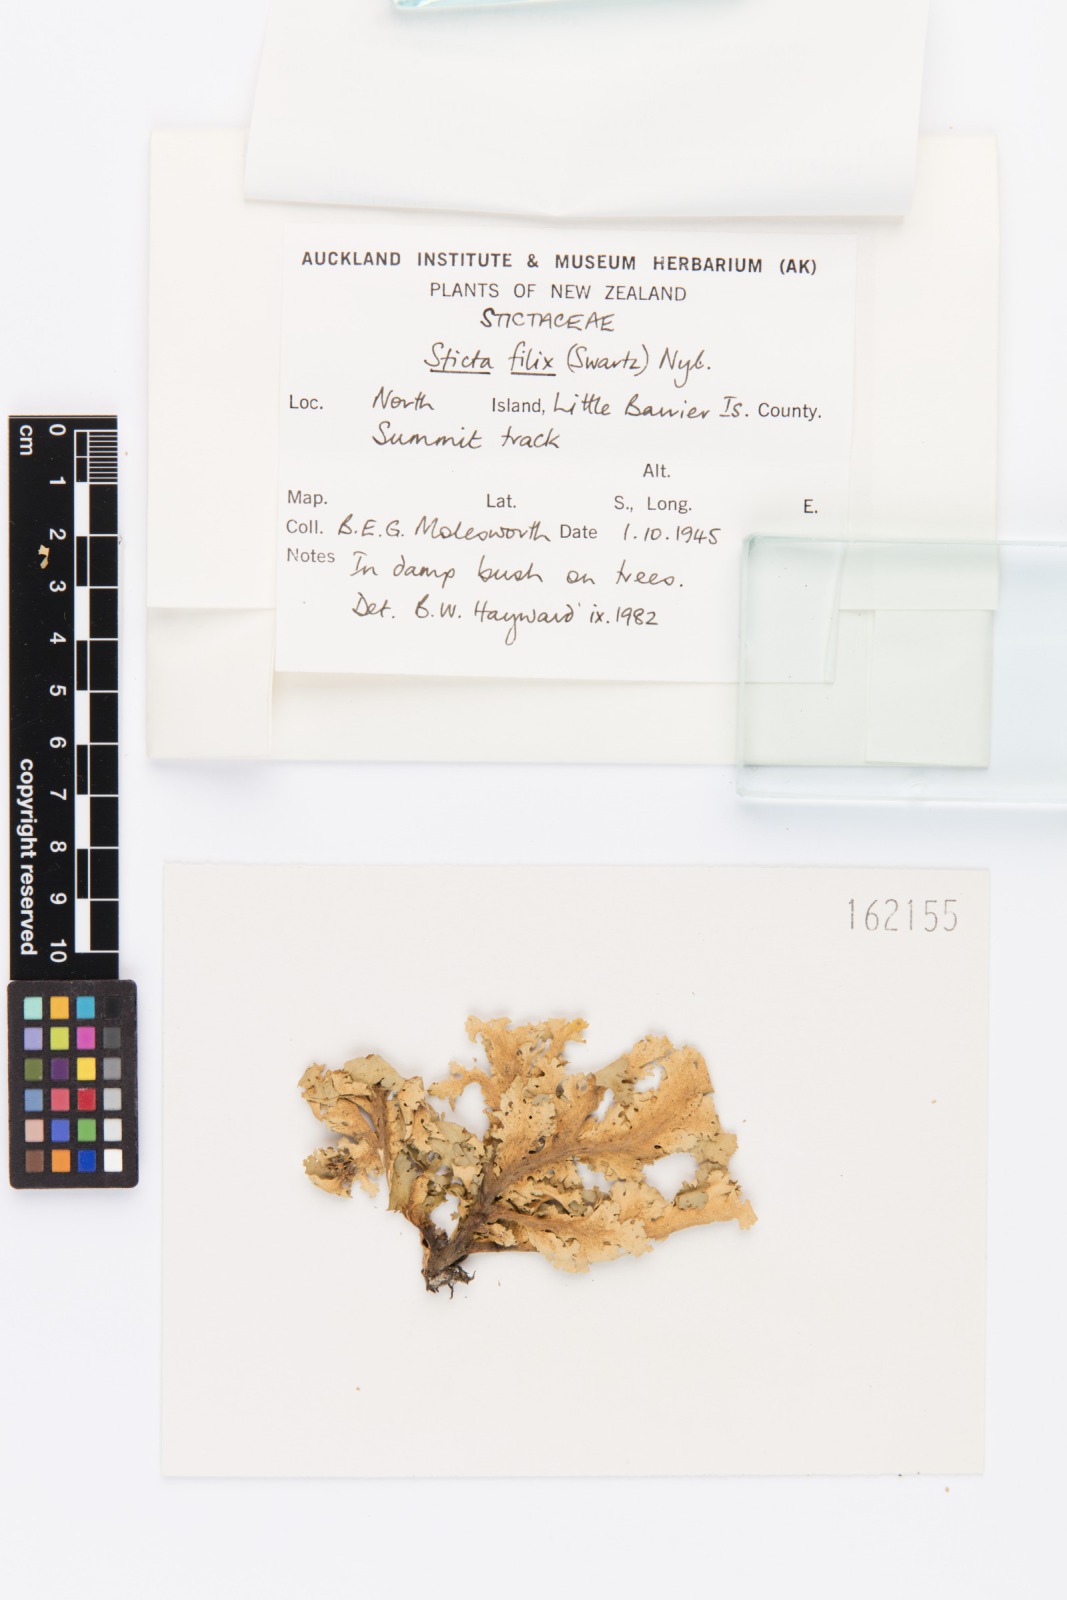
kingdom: Fungi
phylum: Ascomycota
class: Lecanoromycetes
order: Peltigerales
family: Lobariaceae
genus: Sticta
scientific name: Sticta filix
